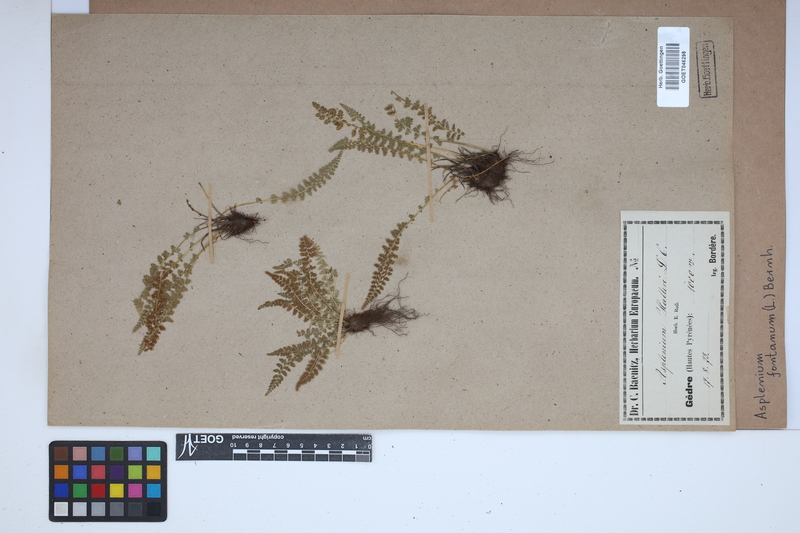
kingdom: Plantae
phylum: Tracheophyta
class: Polypodiopsida
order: Polypodiales
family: Aspleniaceae
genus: Asplenium
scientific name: Asplenium fontanum
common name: Fountain spleenwort
